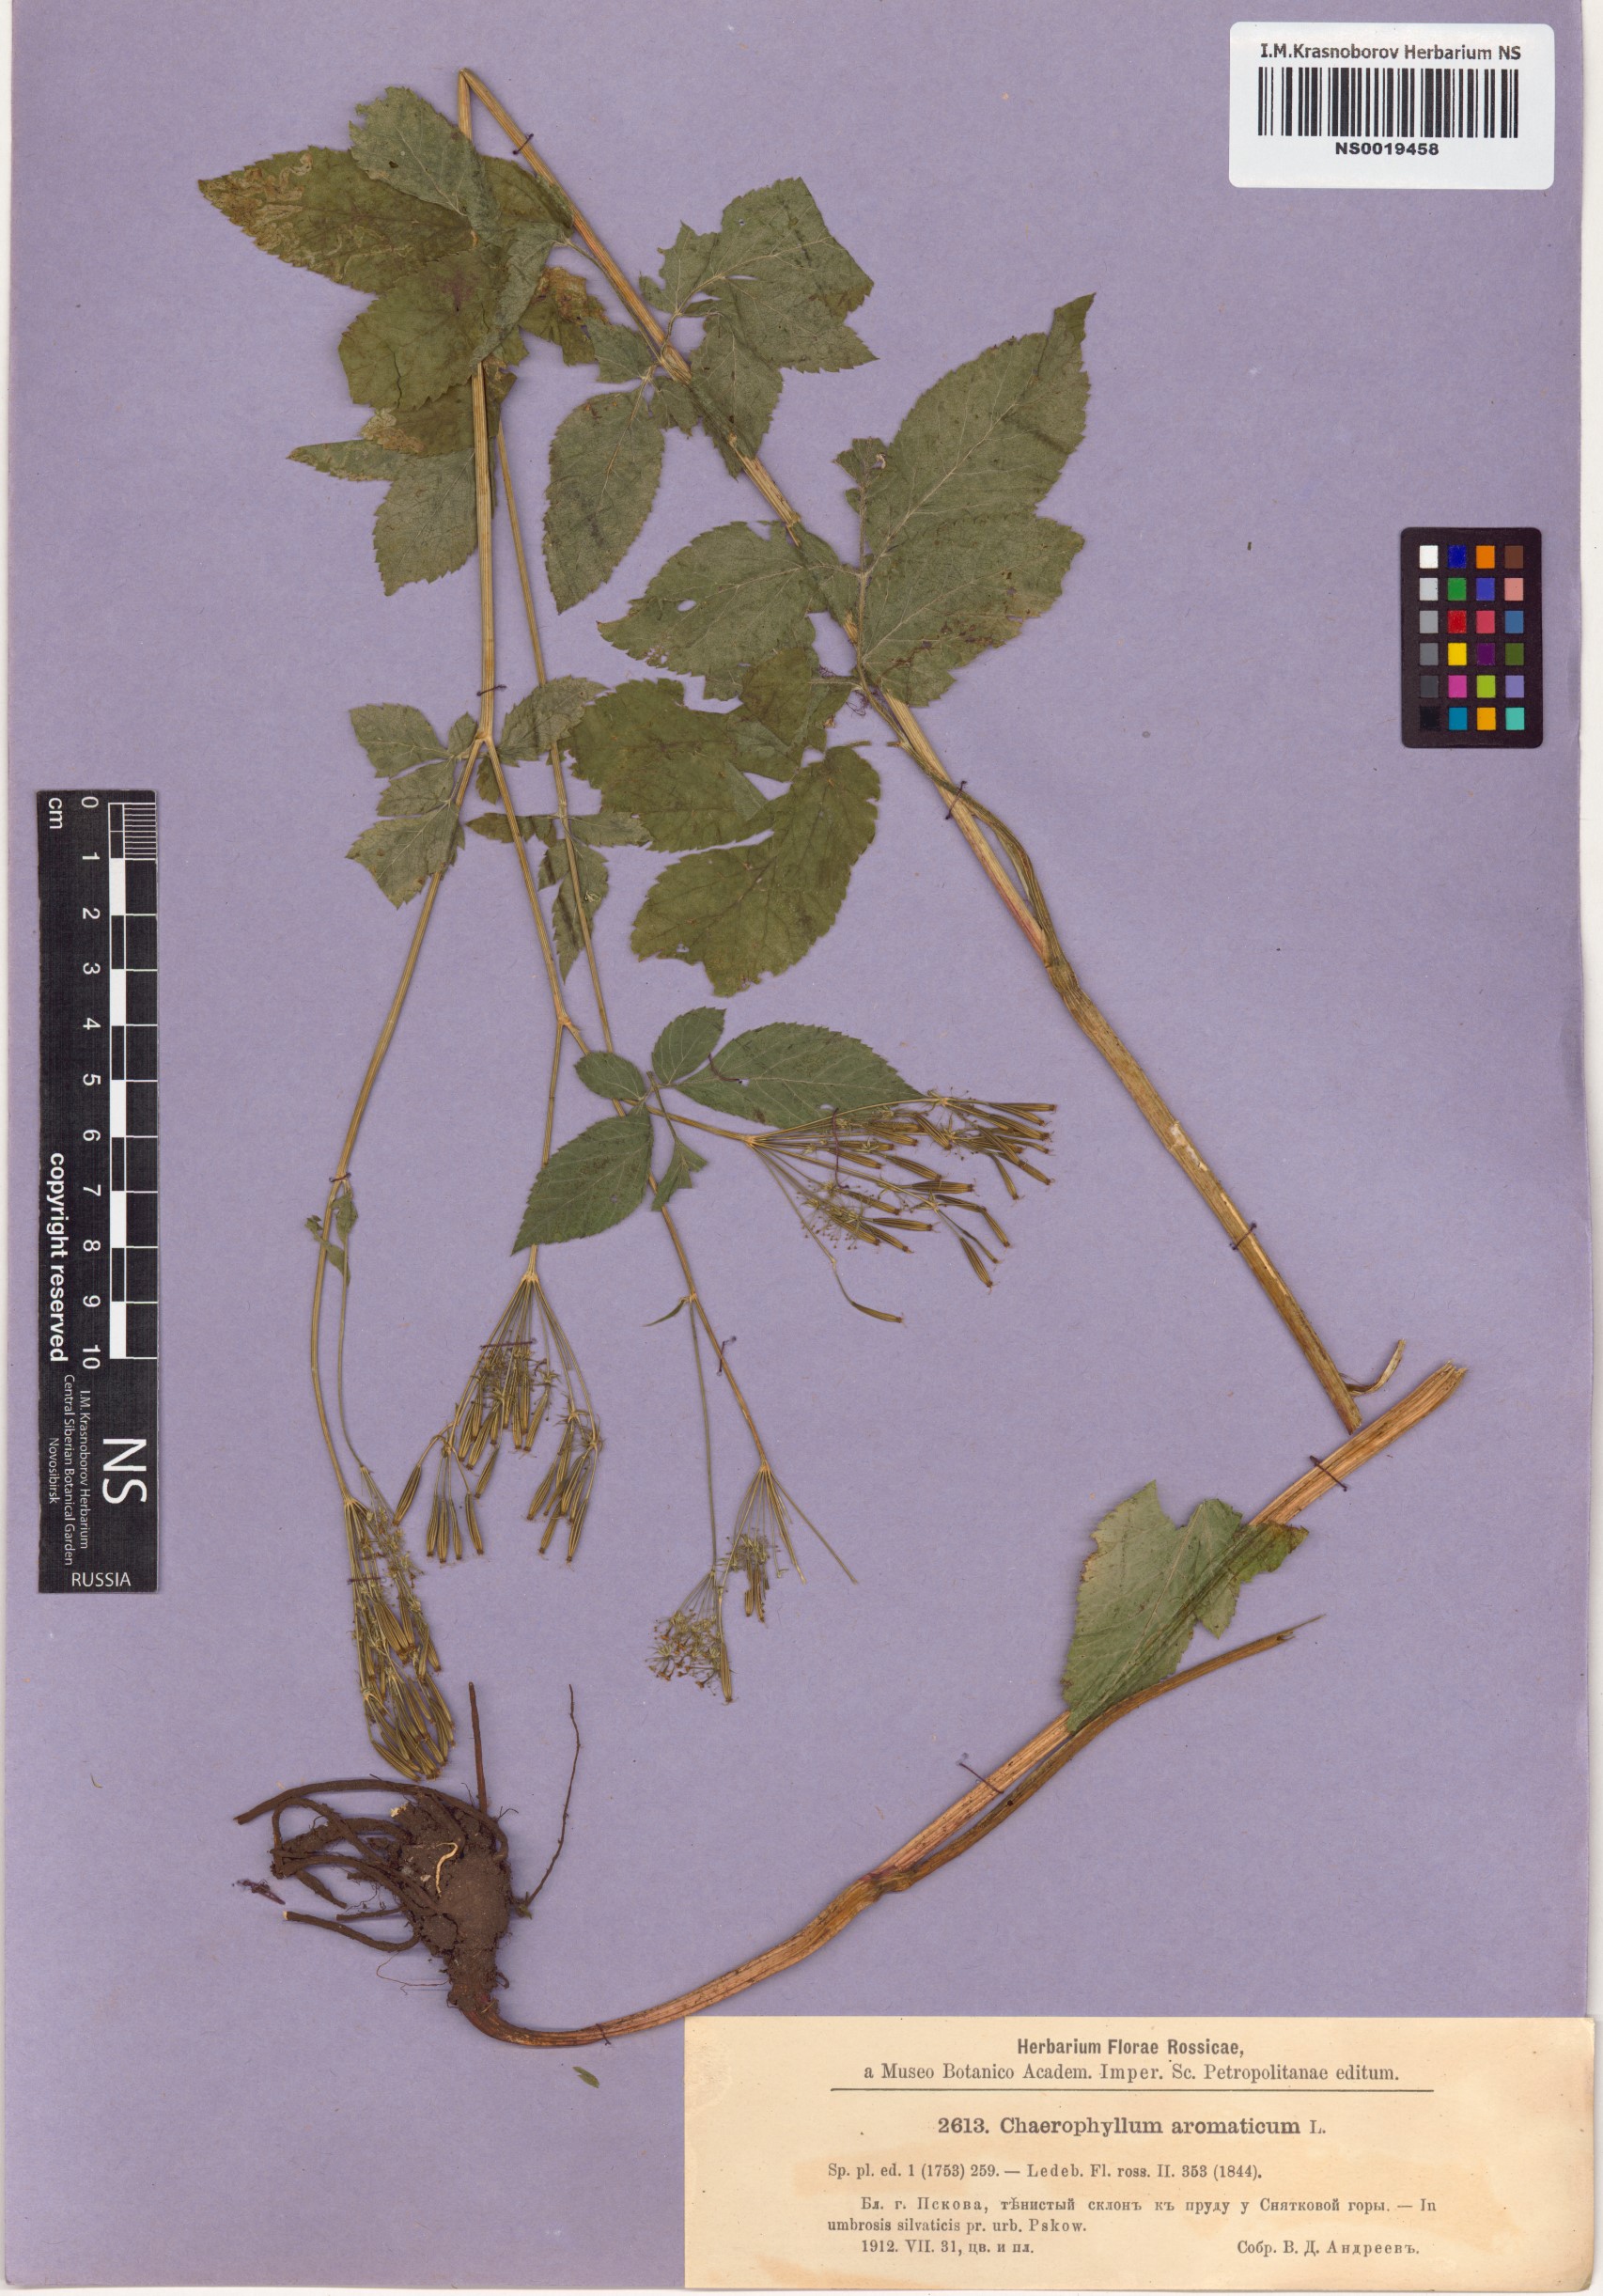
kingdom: Plantae
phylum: Tracheophyta
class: Magnoliopsida
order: Apiales
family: Apiaceae
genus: Chaerophyllum
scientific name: Chaerophyllum aromaticum
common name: Broadleaf chervil
